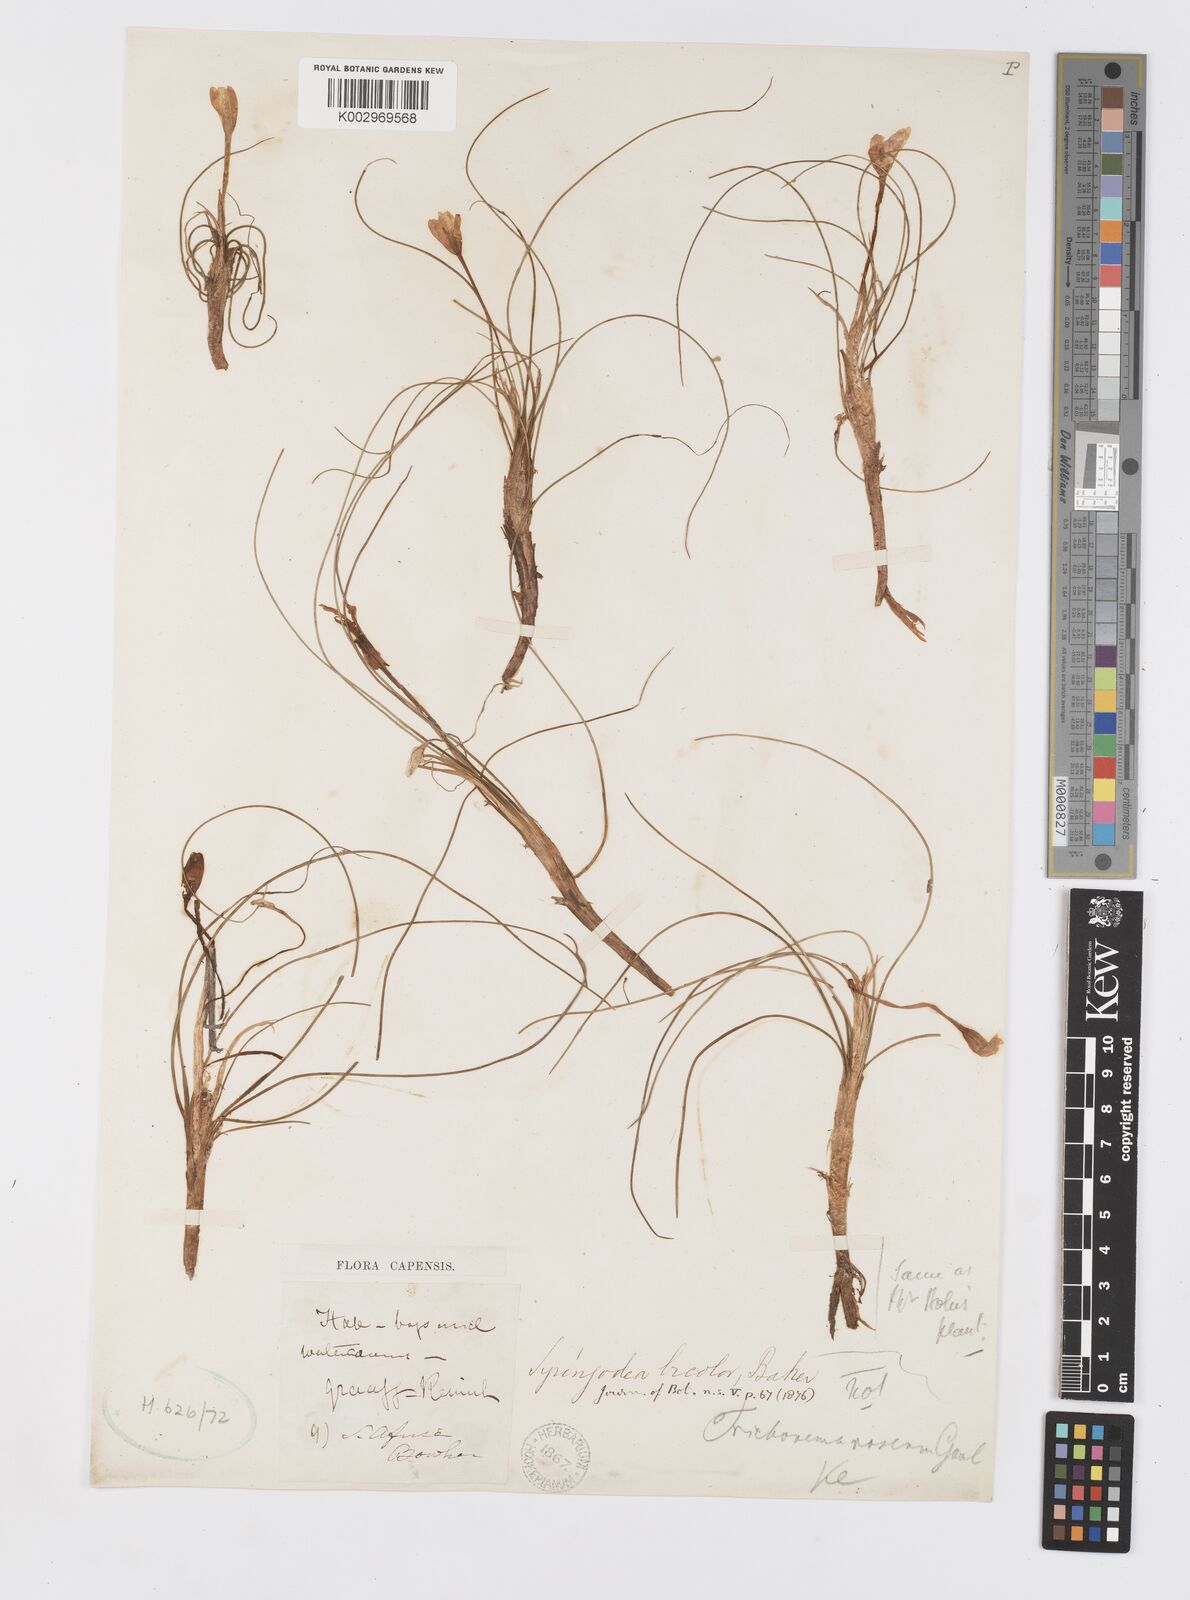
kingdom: Plantae
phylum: Tracheophyta
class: Liliopsida
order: Asparagales
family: Iridaceae
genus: Syringodea
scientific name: Syringodea bifucata
